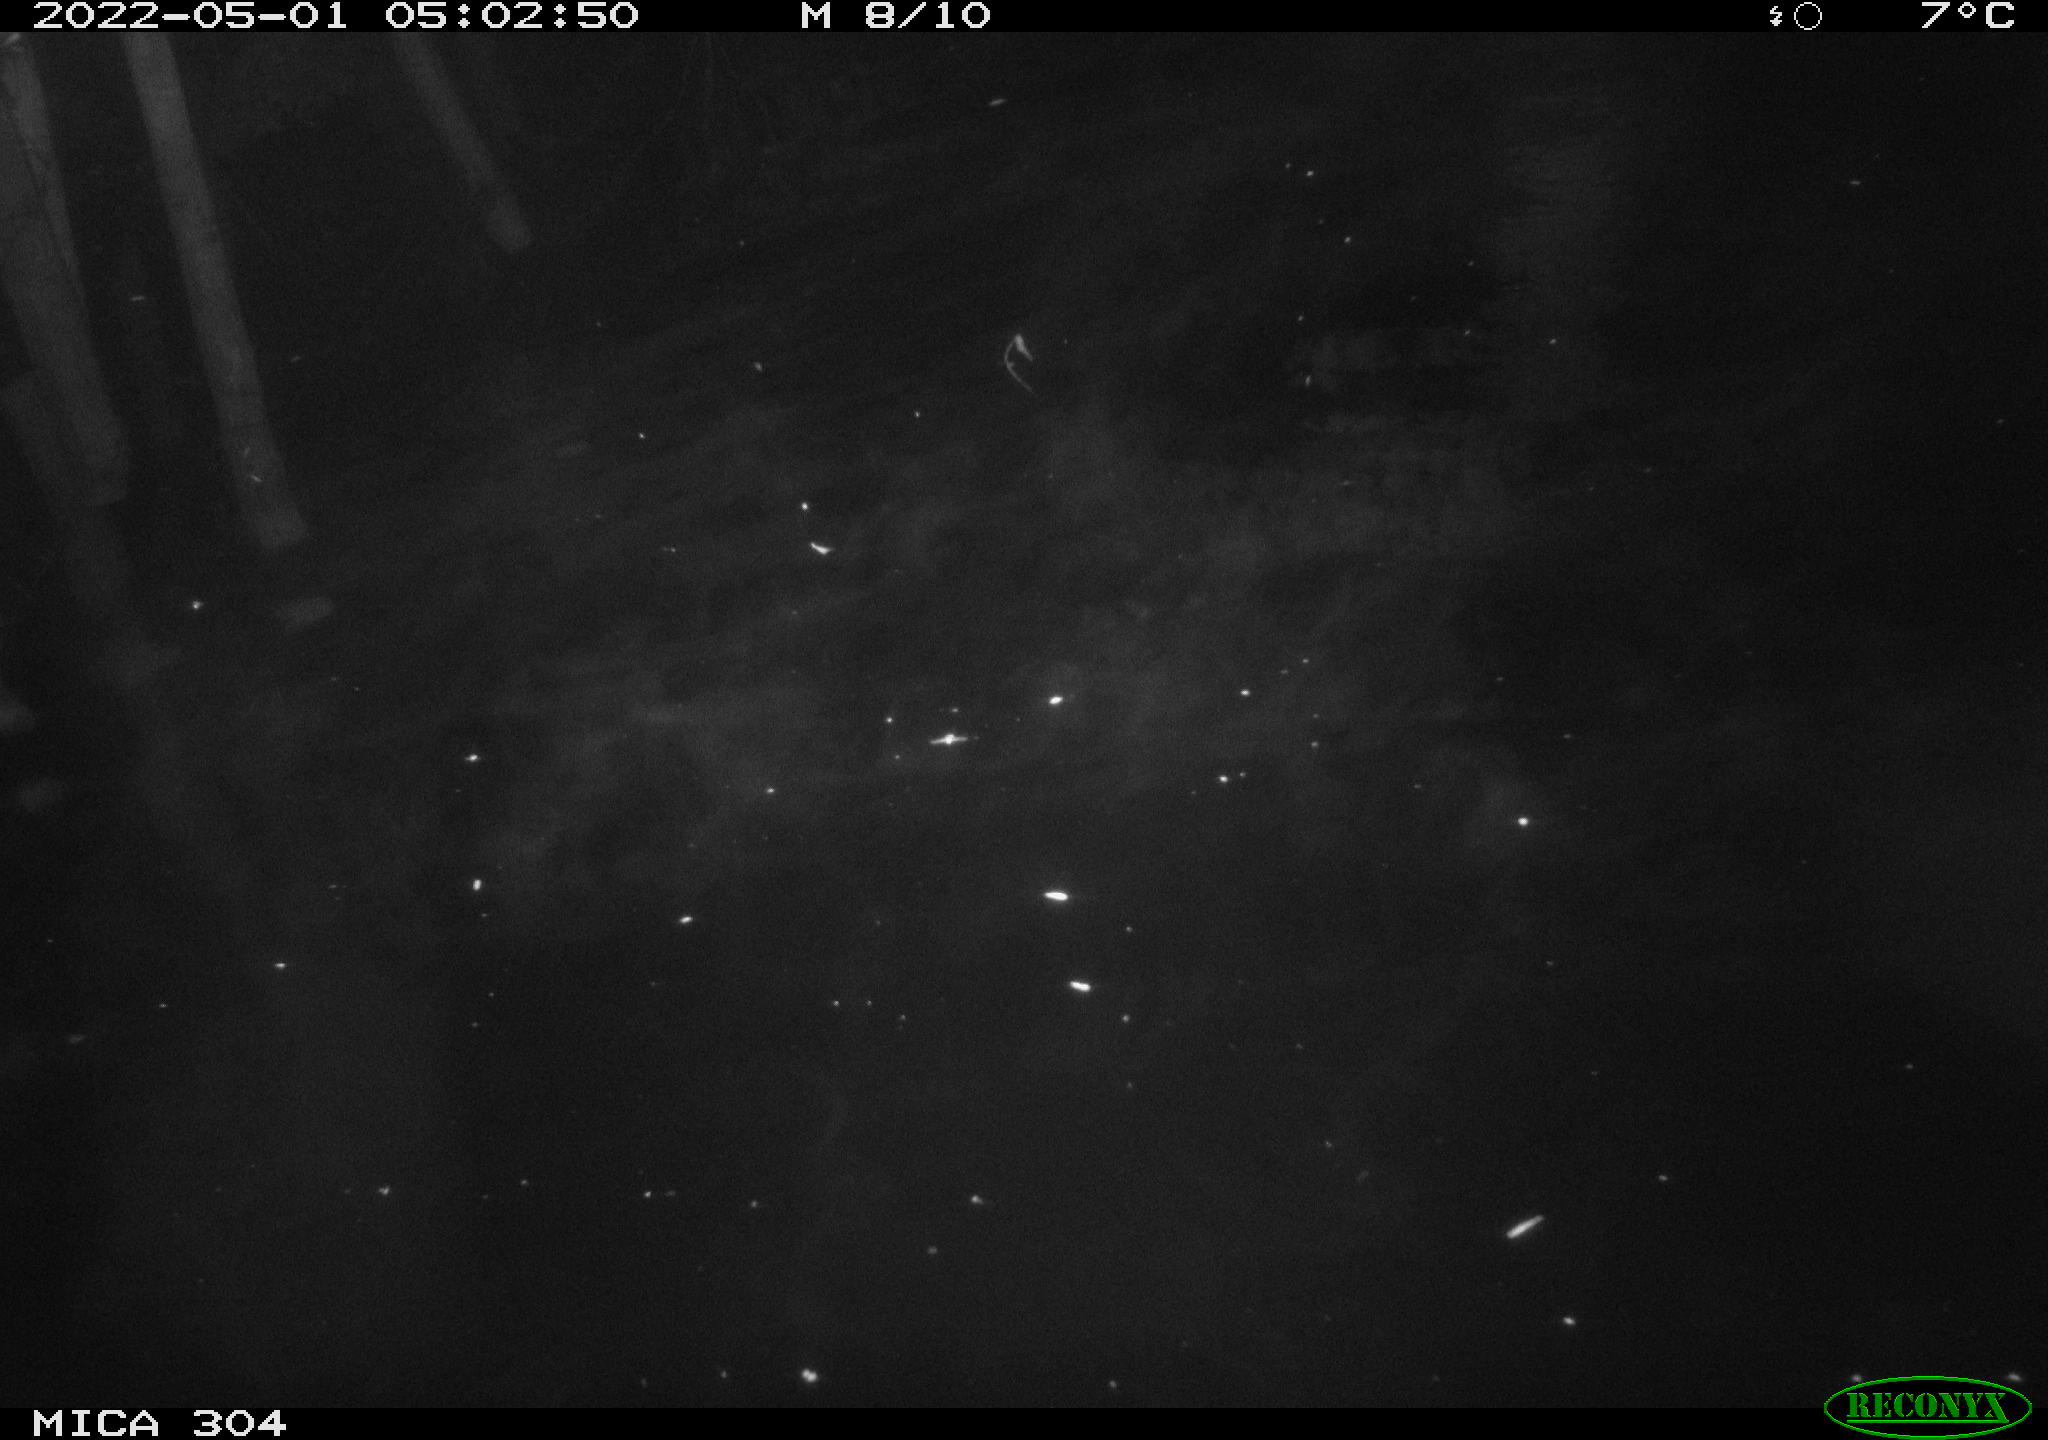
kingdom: Animalia
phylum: Chordata
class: Aves
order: Anseriformes
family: Anatidae
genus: Anas
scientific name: Anas platyrhynchos
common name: Mallard
